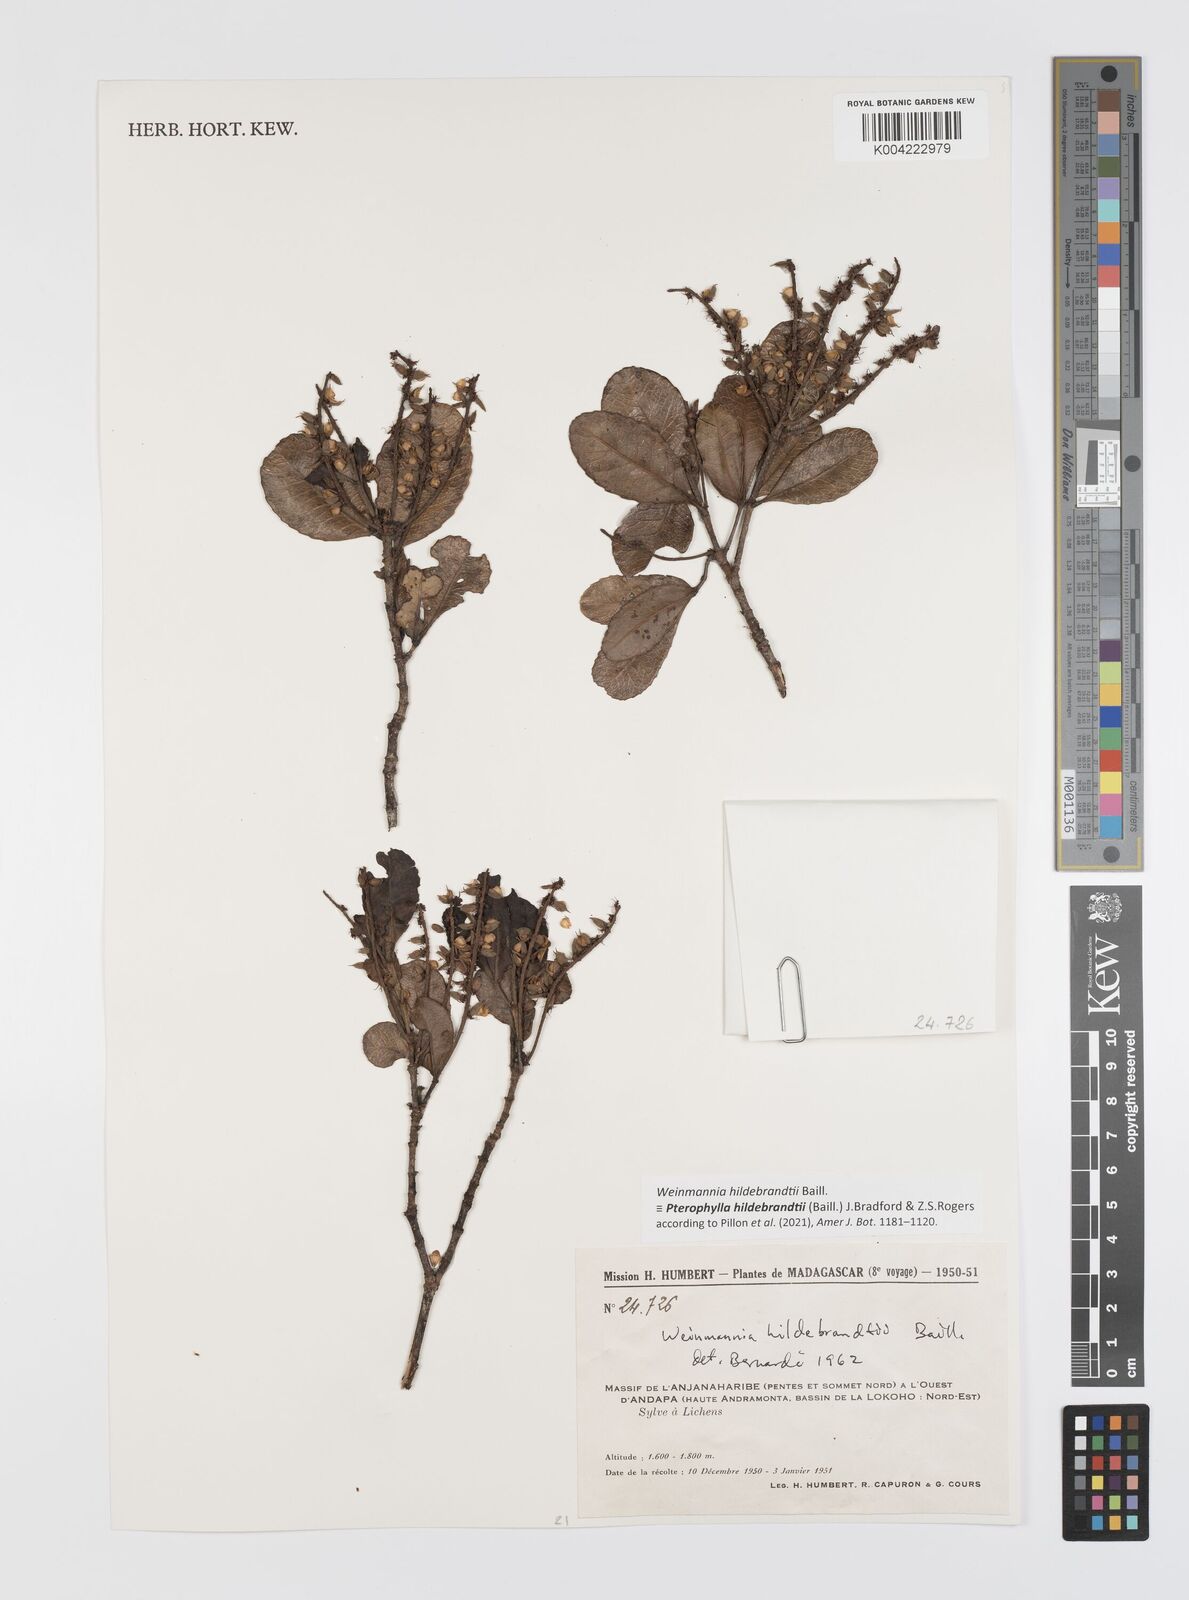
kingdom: Plantae
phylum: Tracheophyta
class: Magnoliopsida
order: Oxalidales
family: Cunoniaceae
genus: Pterophylla
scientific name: Pterophylla hildebrandtii
